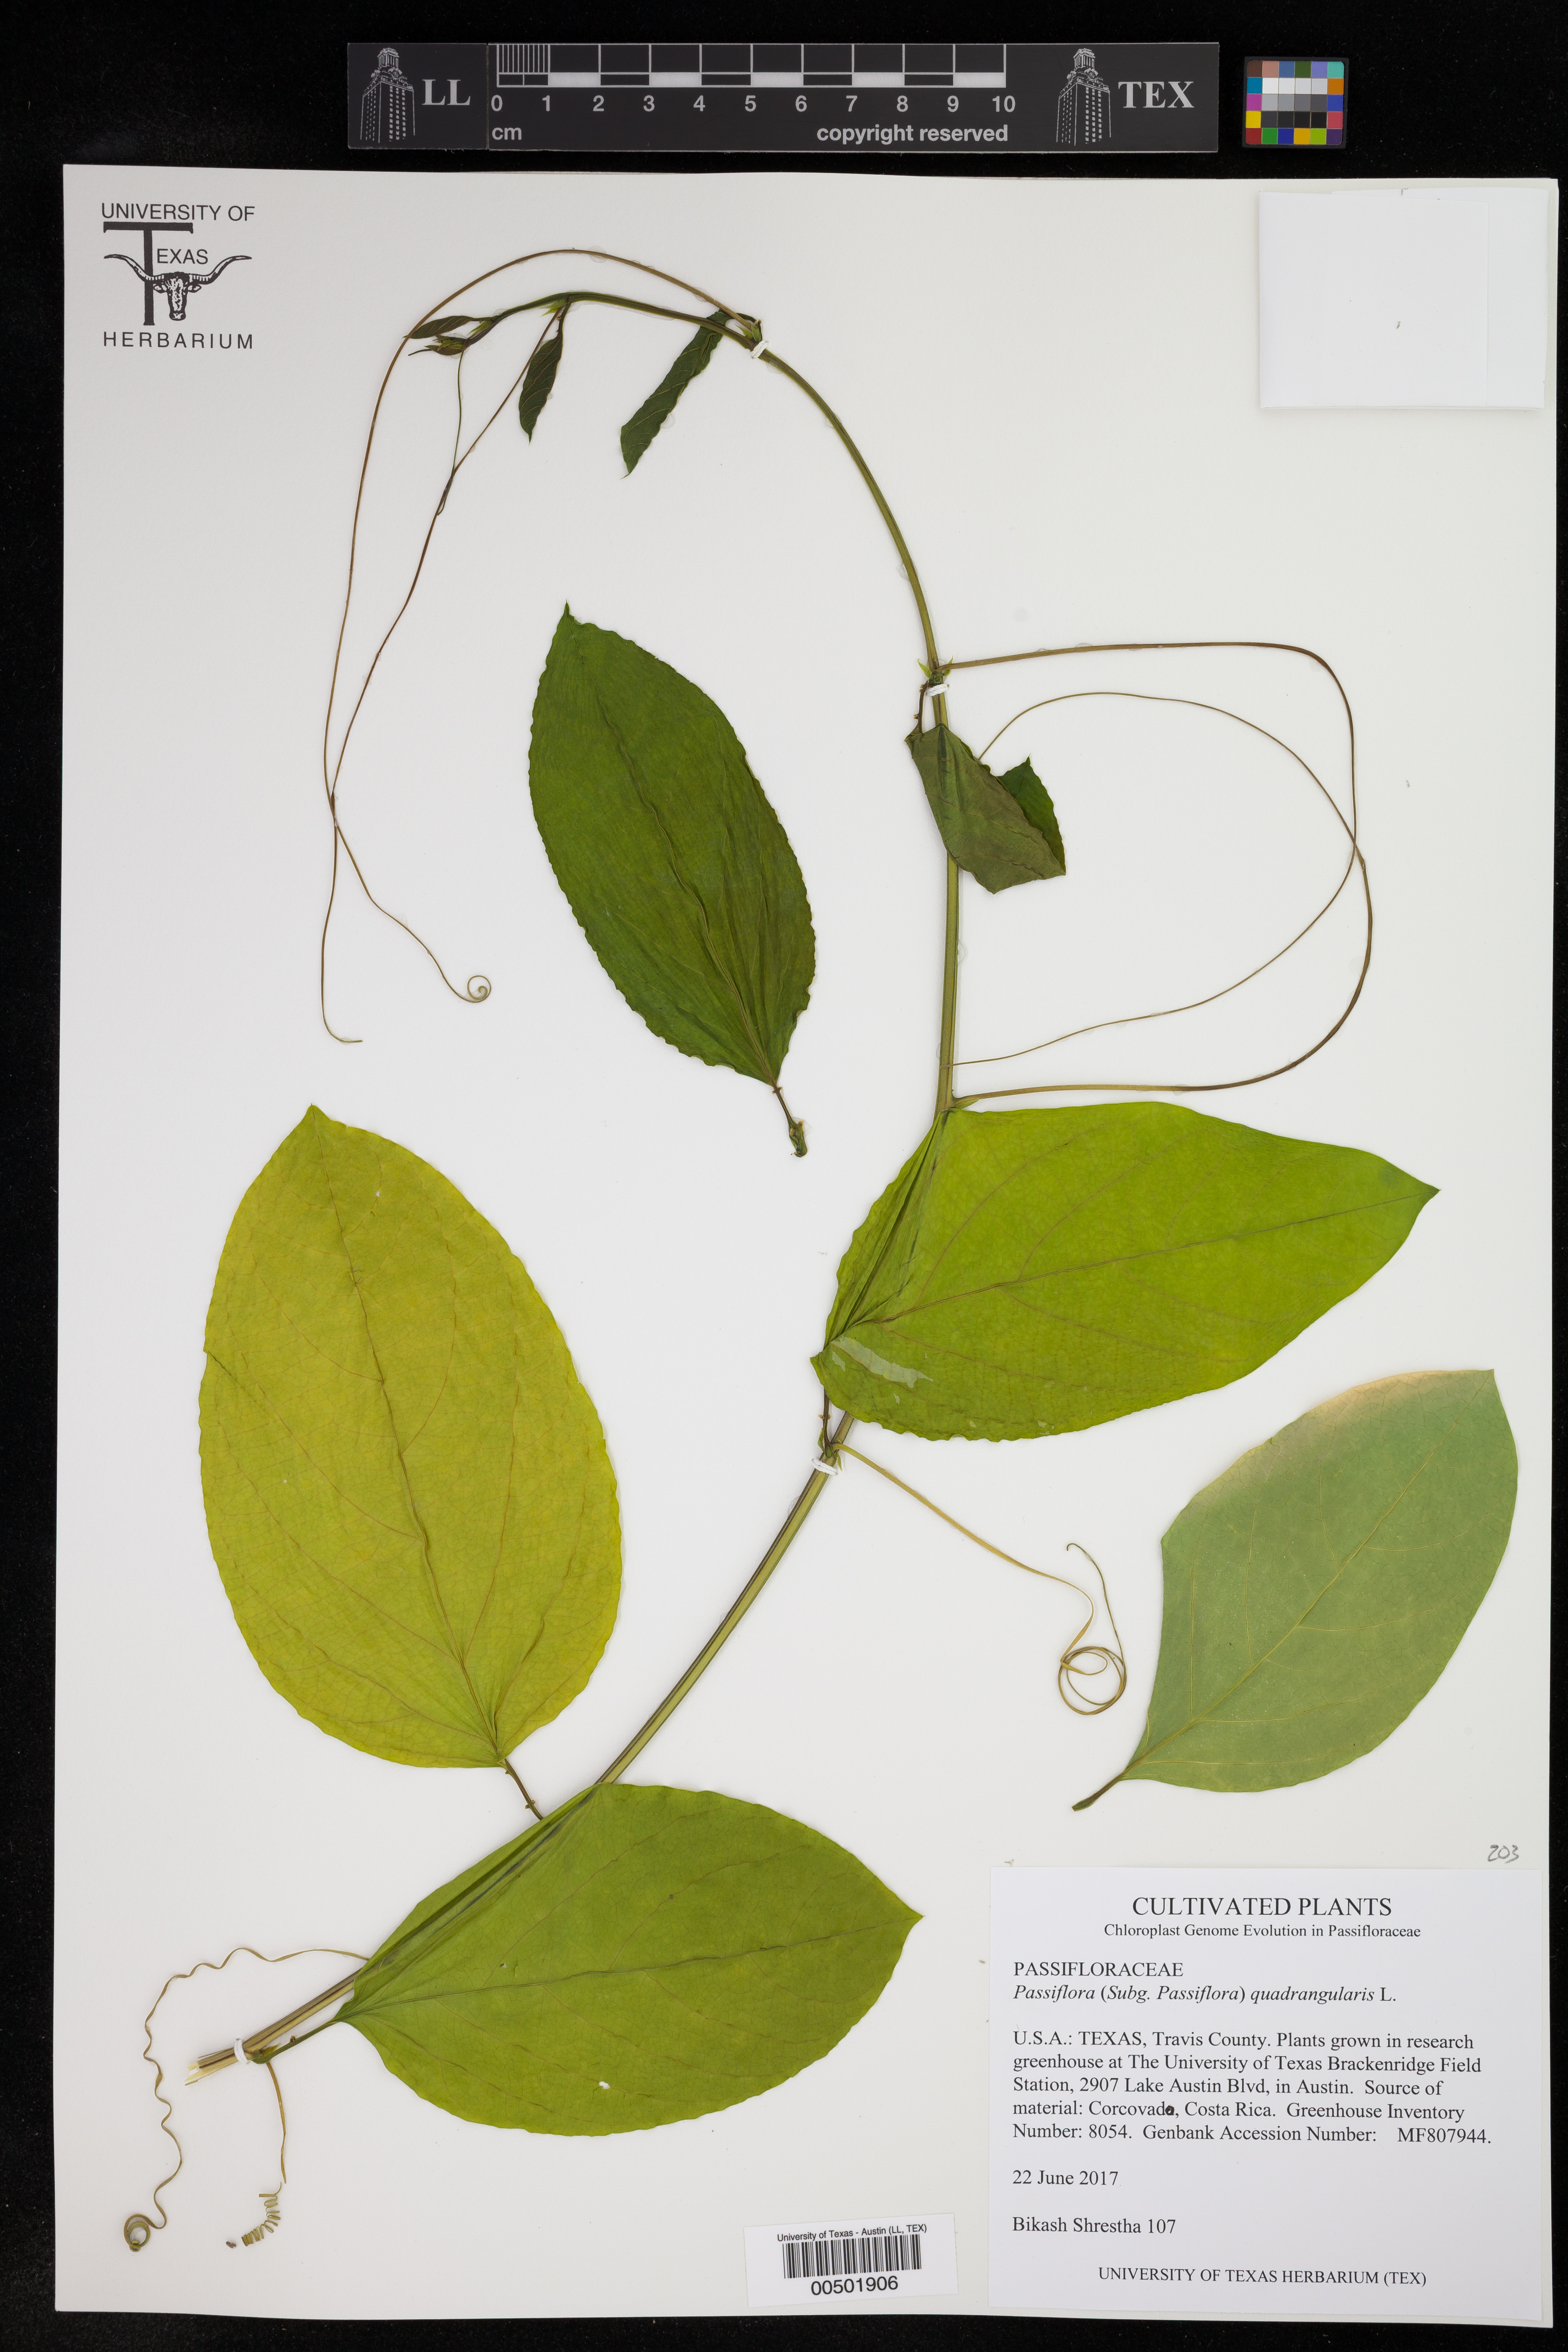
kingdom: Plantae
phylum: Tracheophyta
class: Magnoliopsida
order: Malpighiales
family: Passifloraceae
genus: Passiflora
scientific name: Passiflora quadrangularis
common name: Giant granadilla
